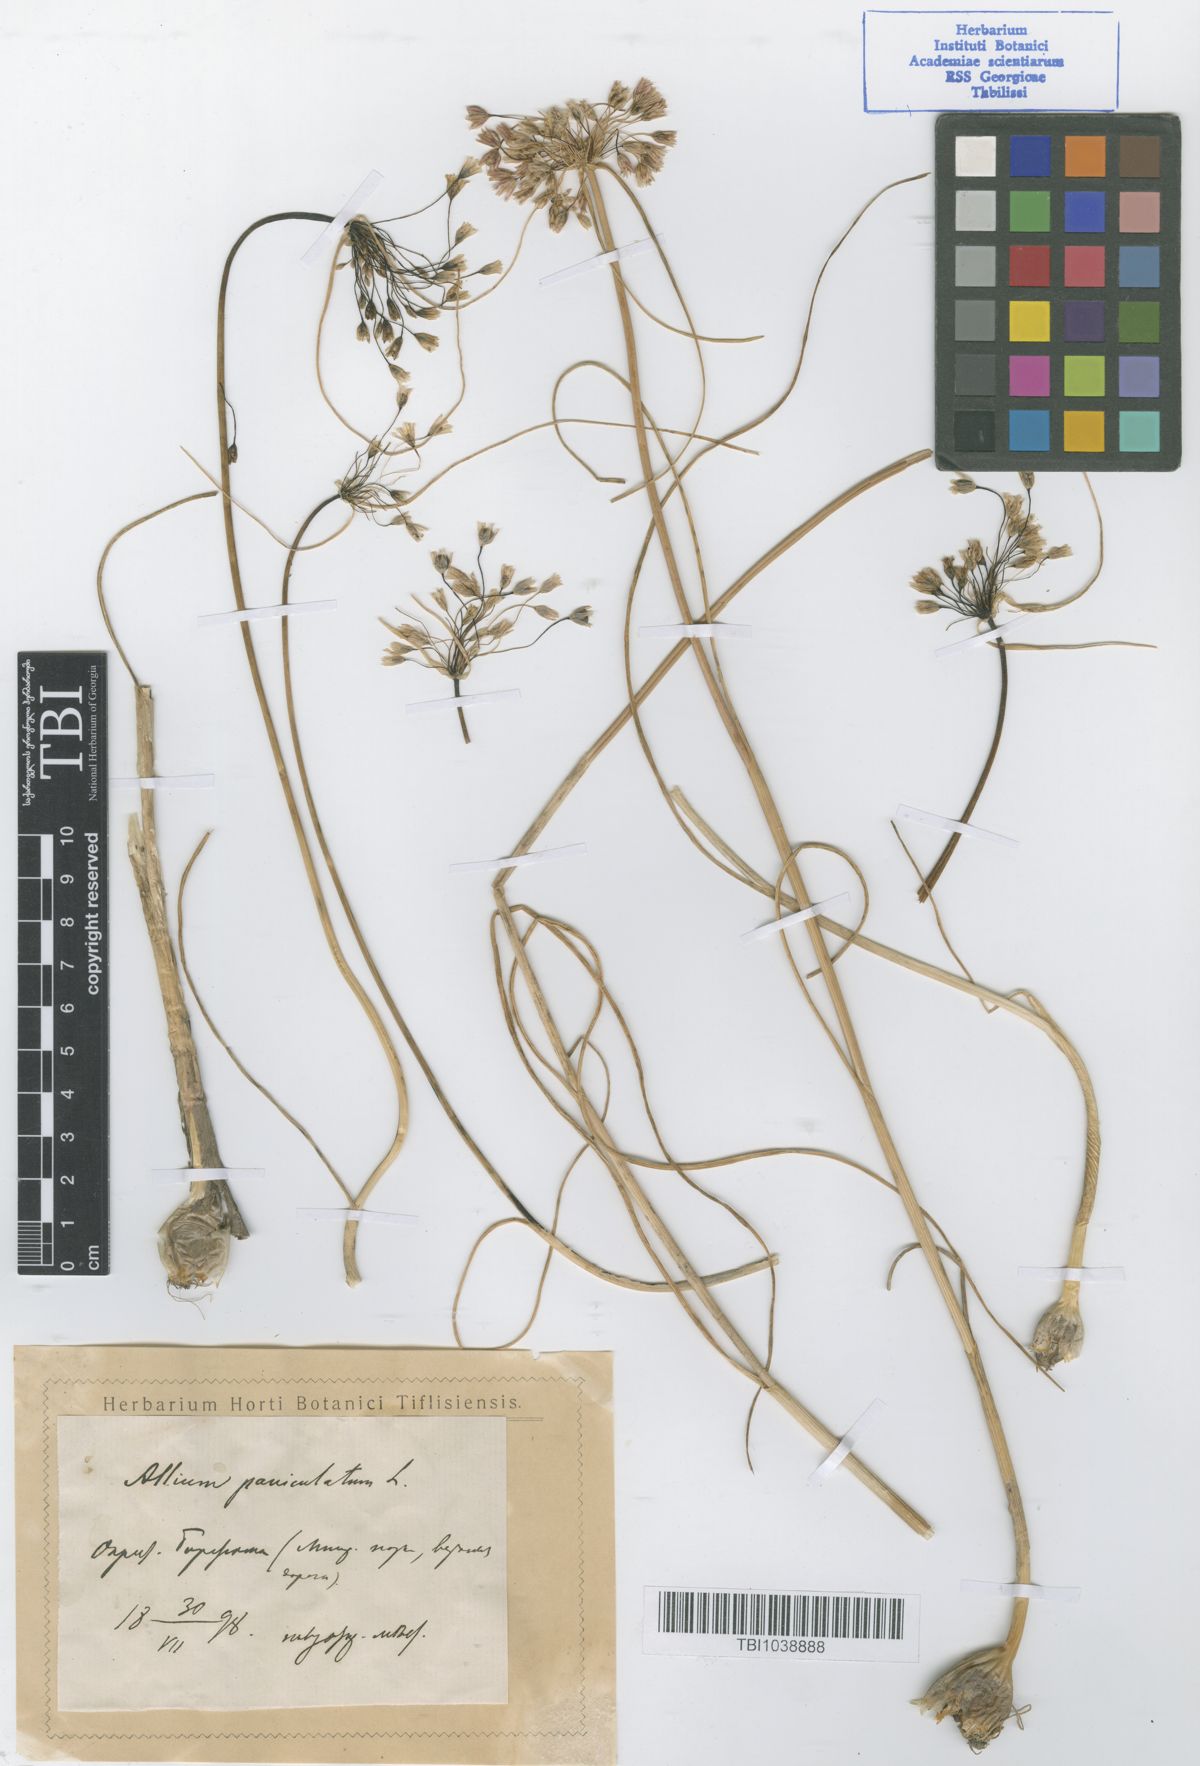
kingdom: Plantae
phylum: Tracheophyta
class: Liliopsida
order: Asparagales
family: Amaryllidaceae
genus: Allium
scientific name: Allium paniculatum
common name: Pale garlic
